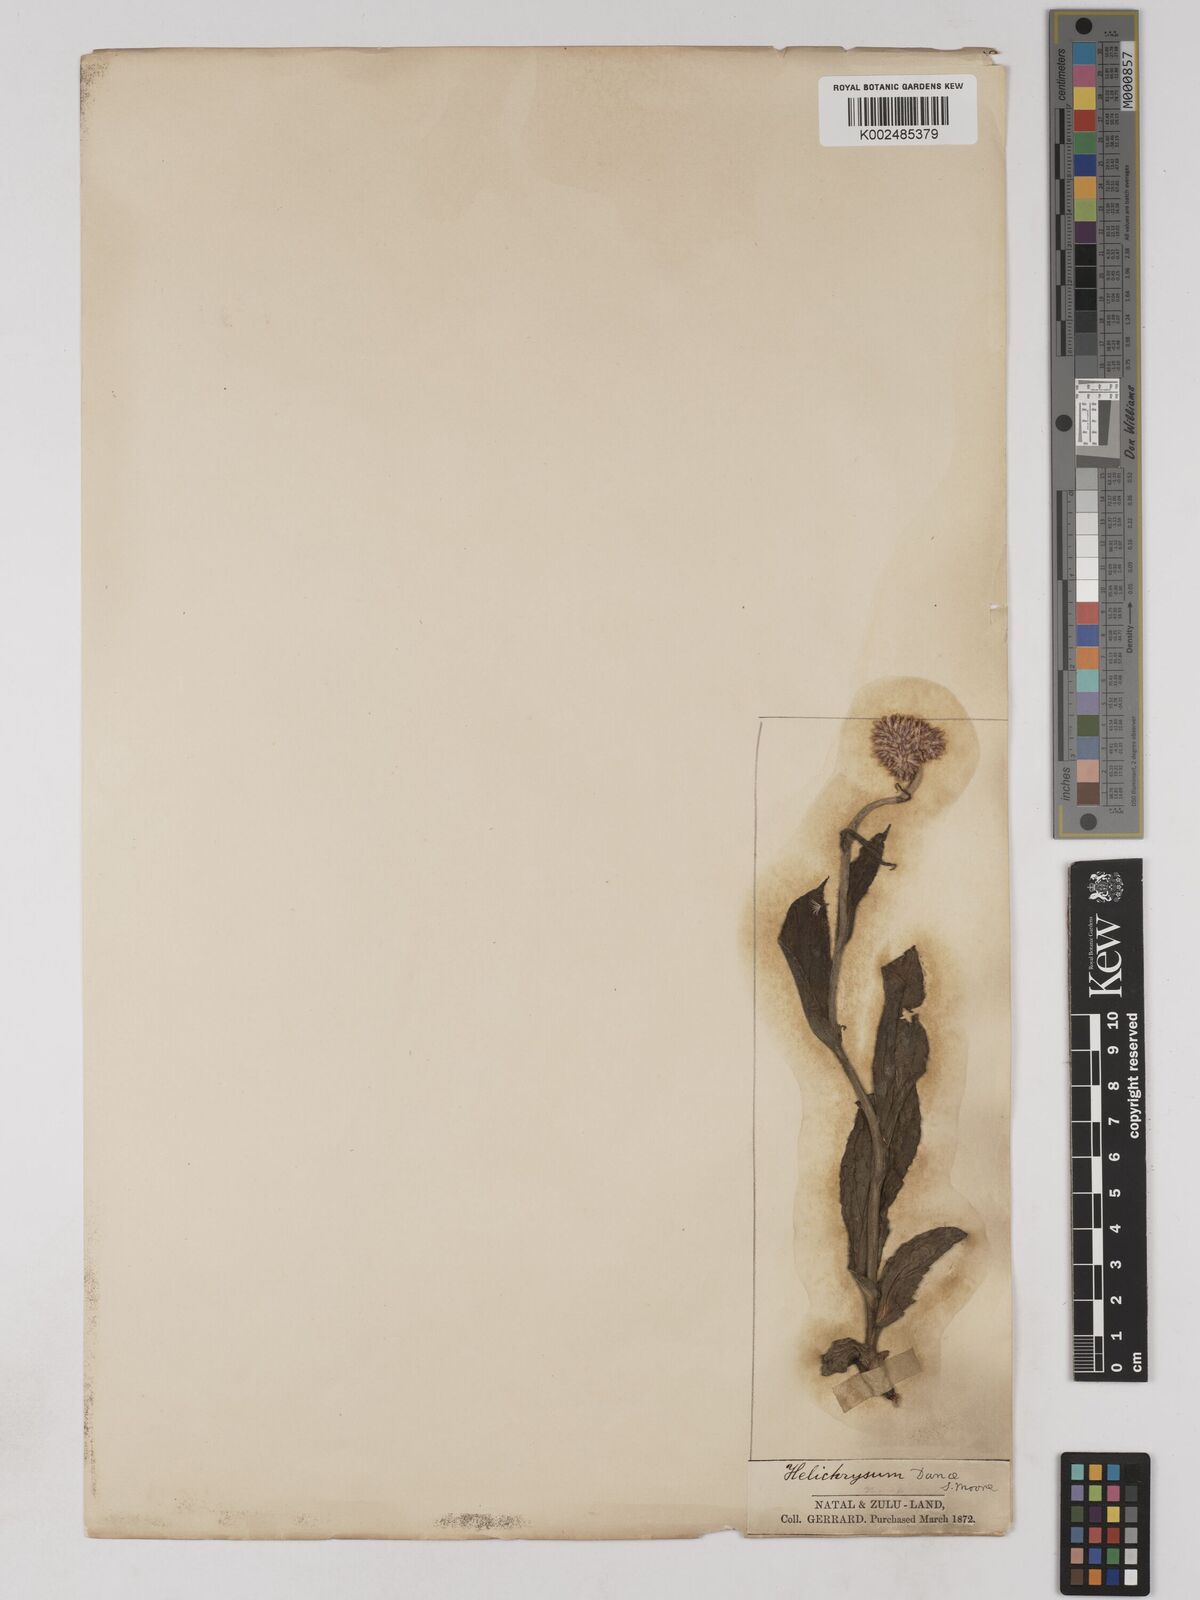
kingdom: Plantae
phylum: Tracheophyta
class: Magnoliopsida
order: Asterales
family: Asteraceae
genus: Helichrysum
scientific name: Helichrysum acutatum
